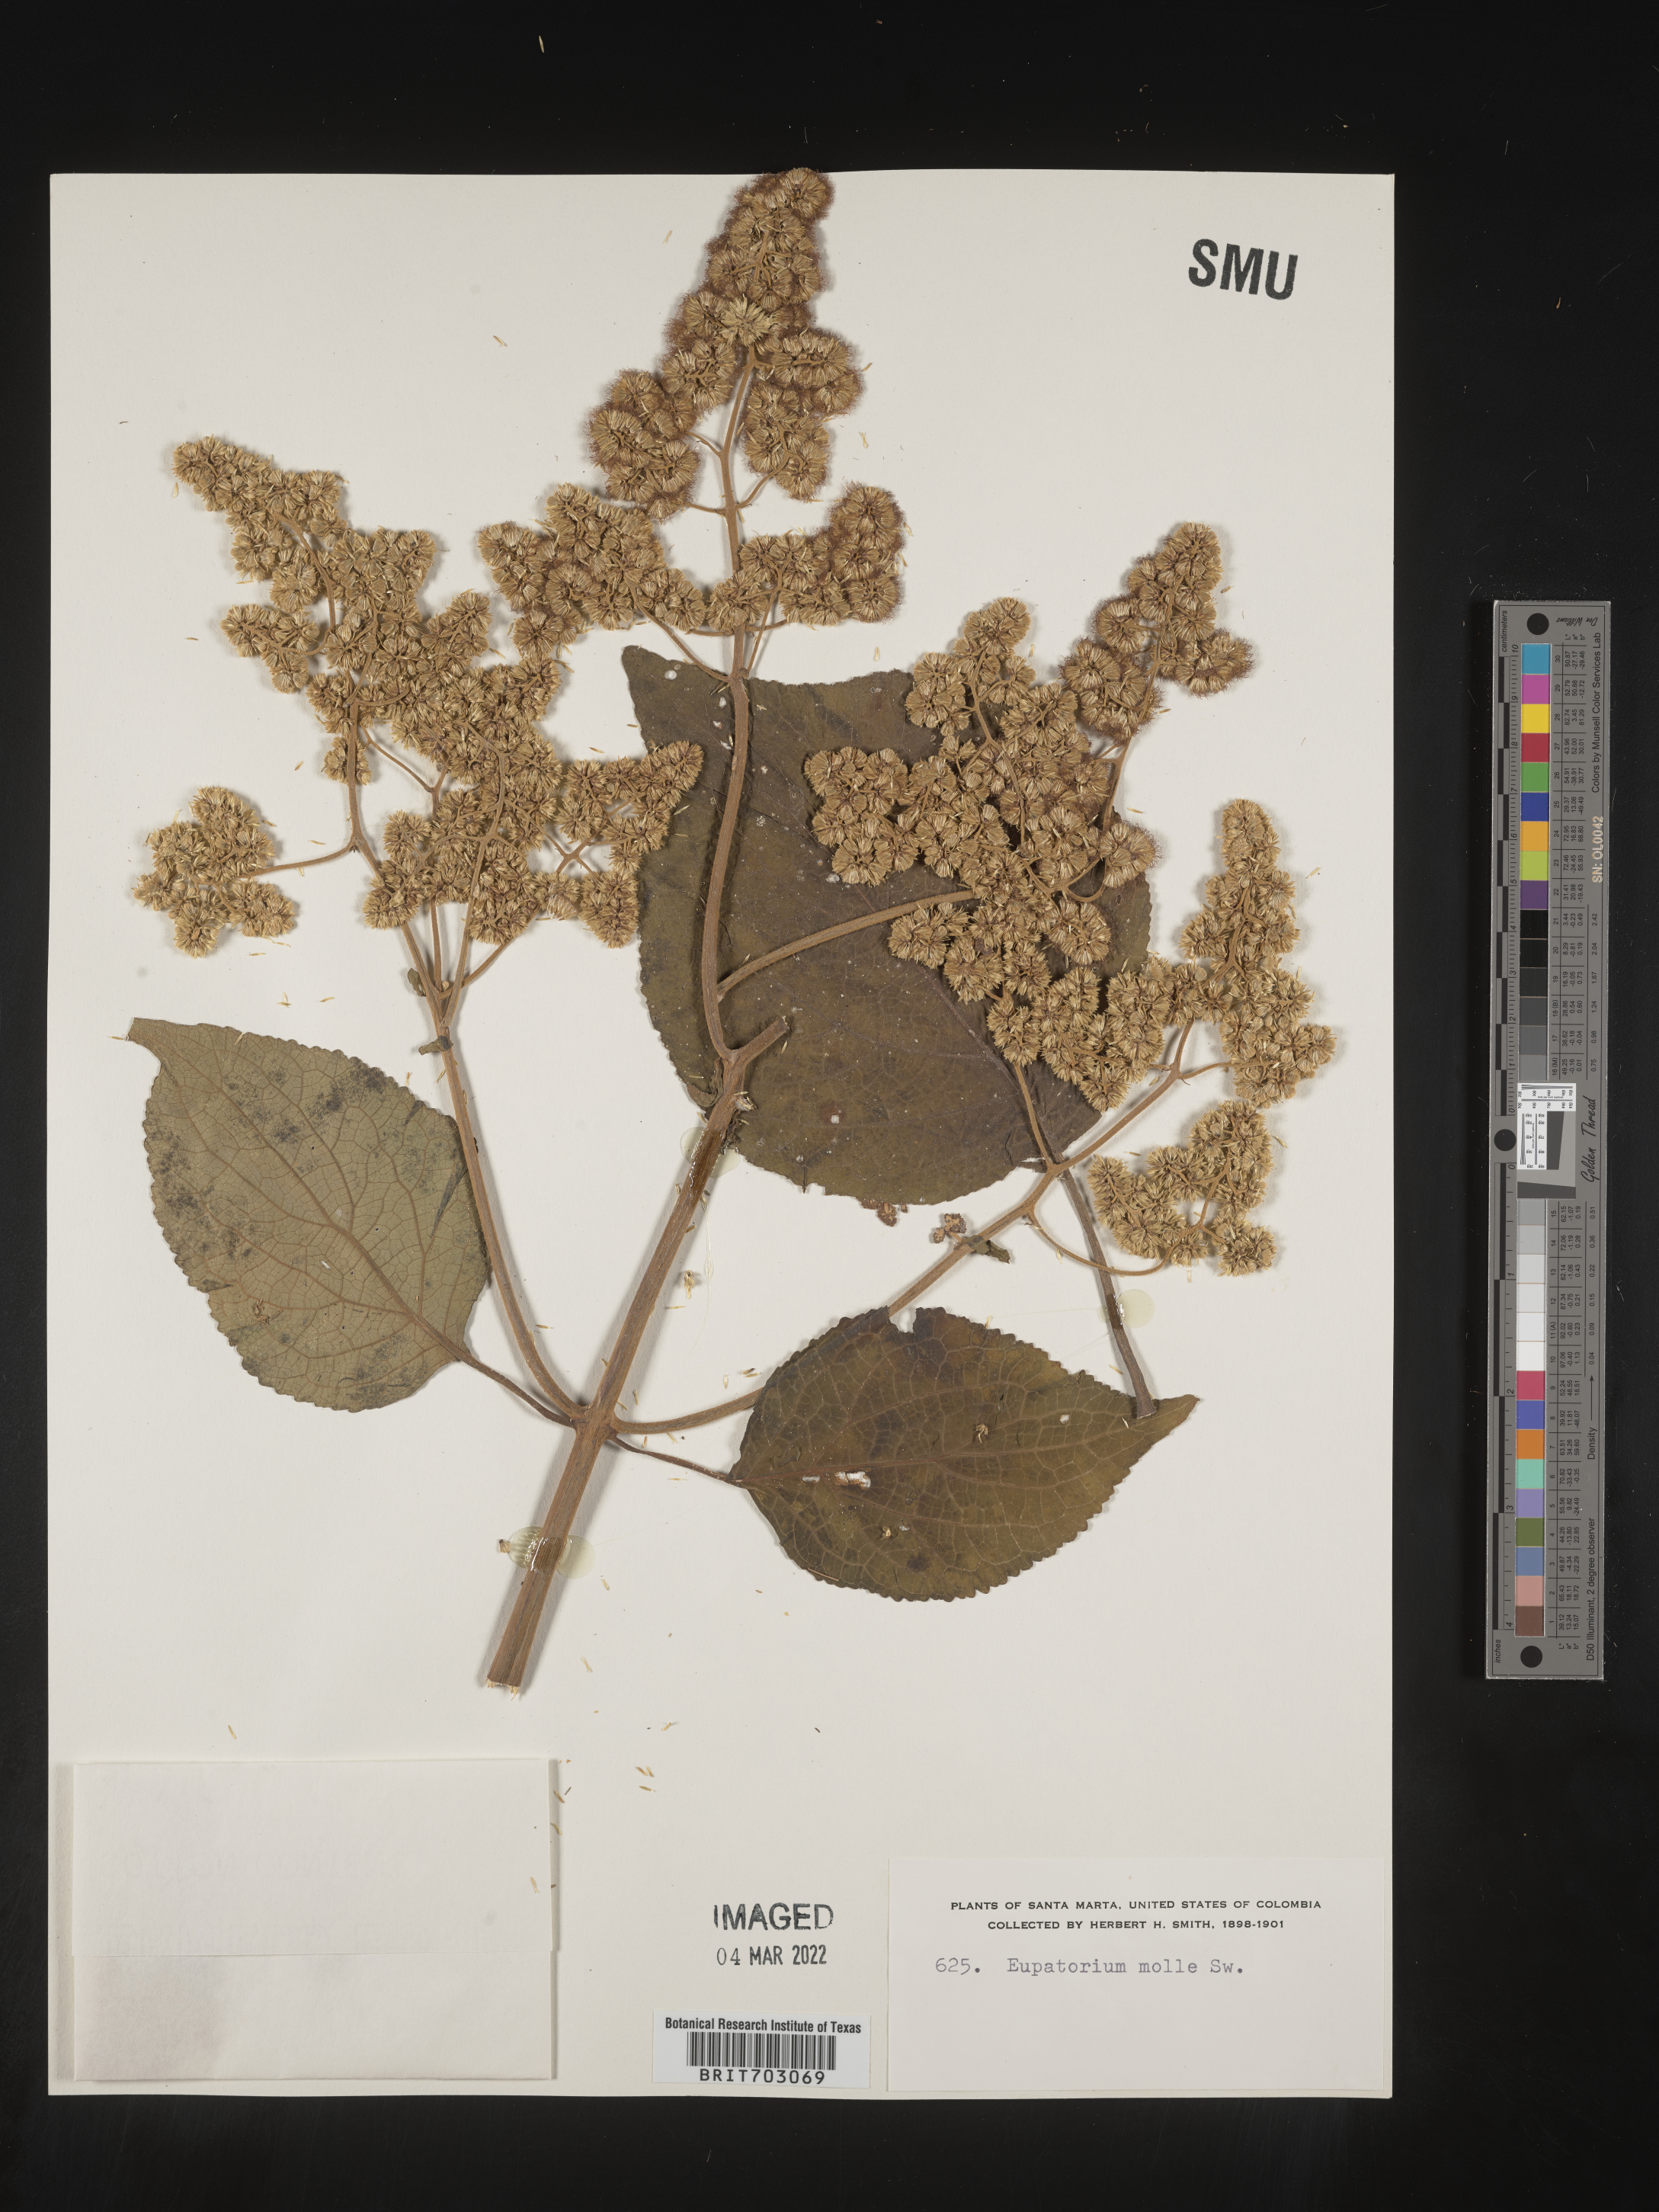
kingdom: Plantae
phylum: Tracheophyta
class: Magnoliopsida
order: Asterales
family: Asteraceae
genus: Eupatorium
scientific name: Eupatorium
